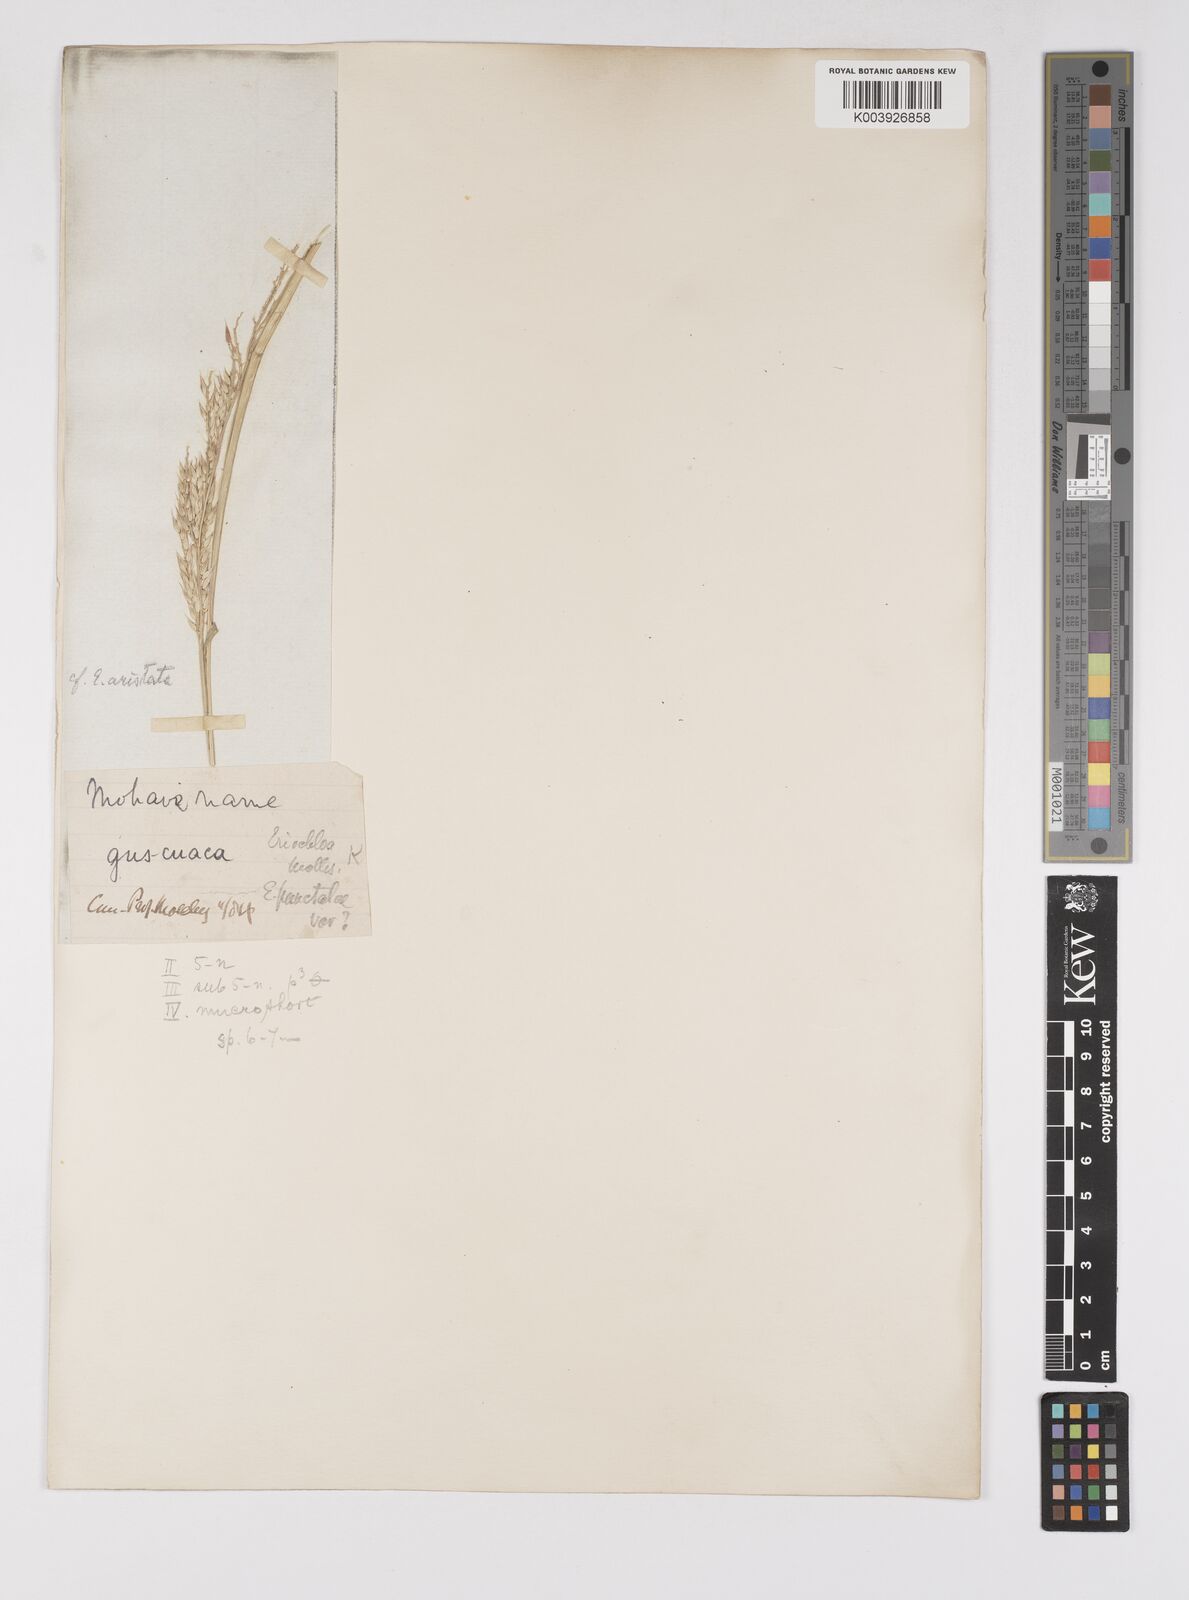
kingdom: Plantae
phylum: Tracheophyta
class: Liliopsida
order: Poales
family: Poaceae
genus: Eriochloa
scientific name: Eriochloa aristata
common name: Bearded cup grass
